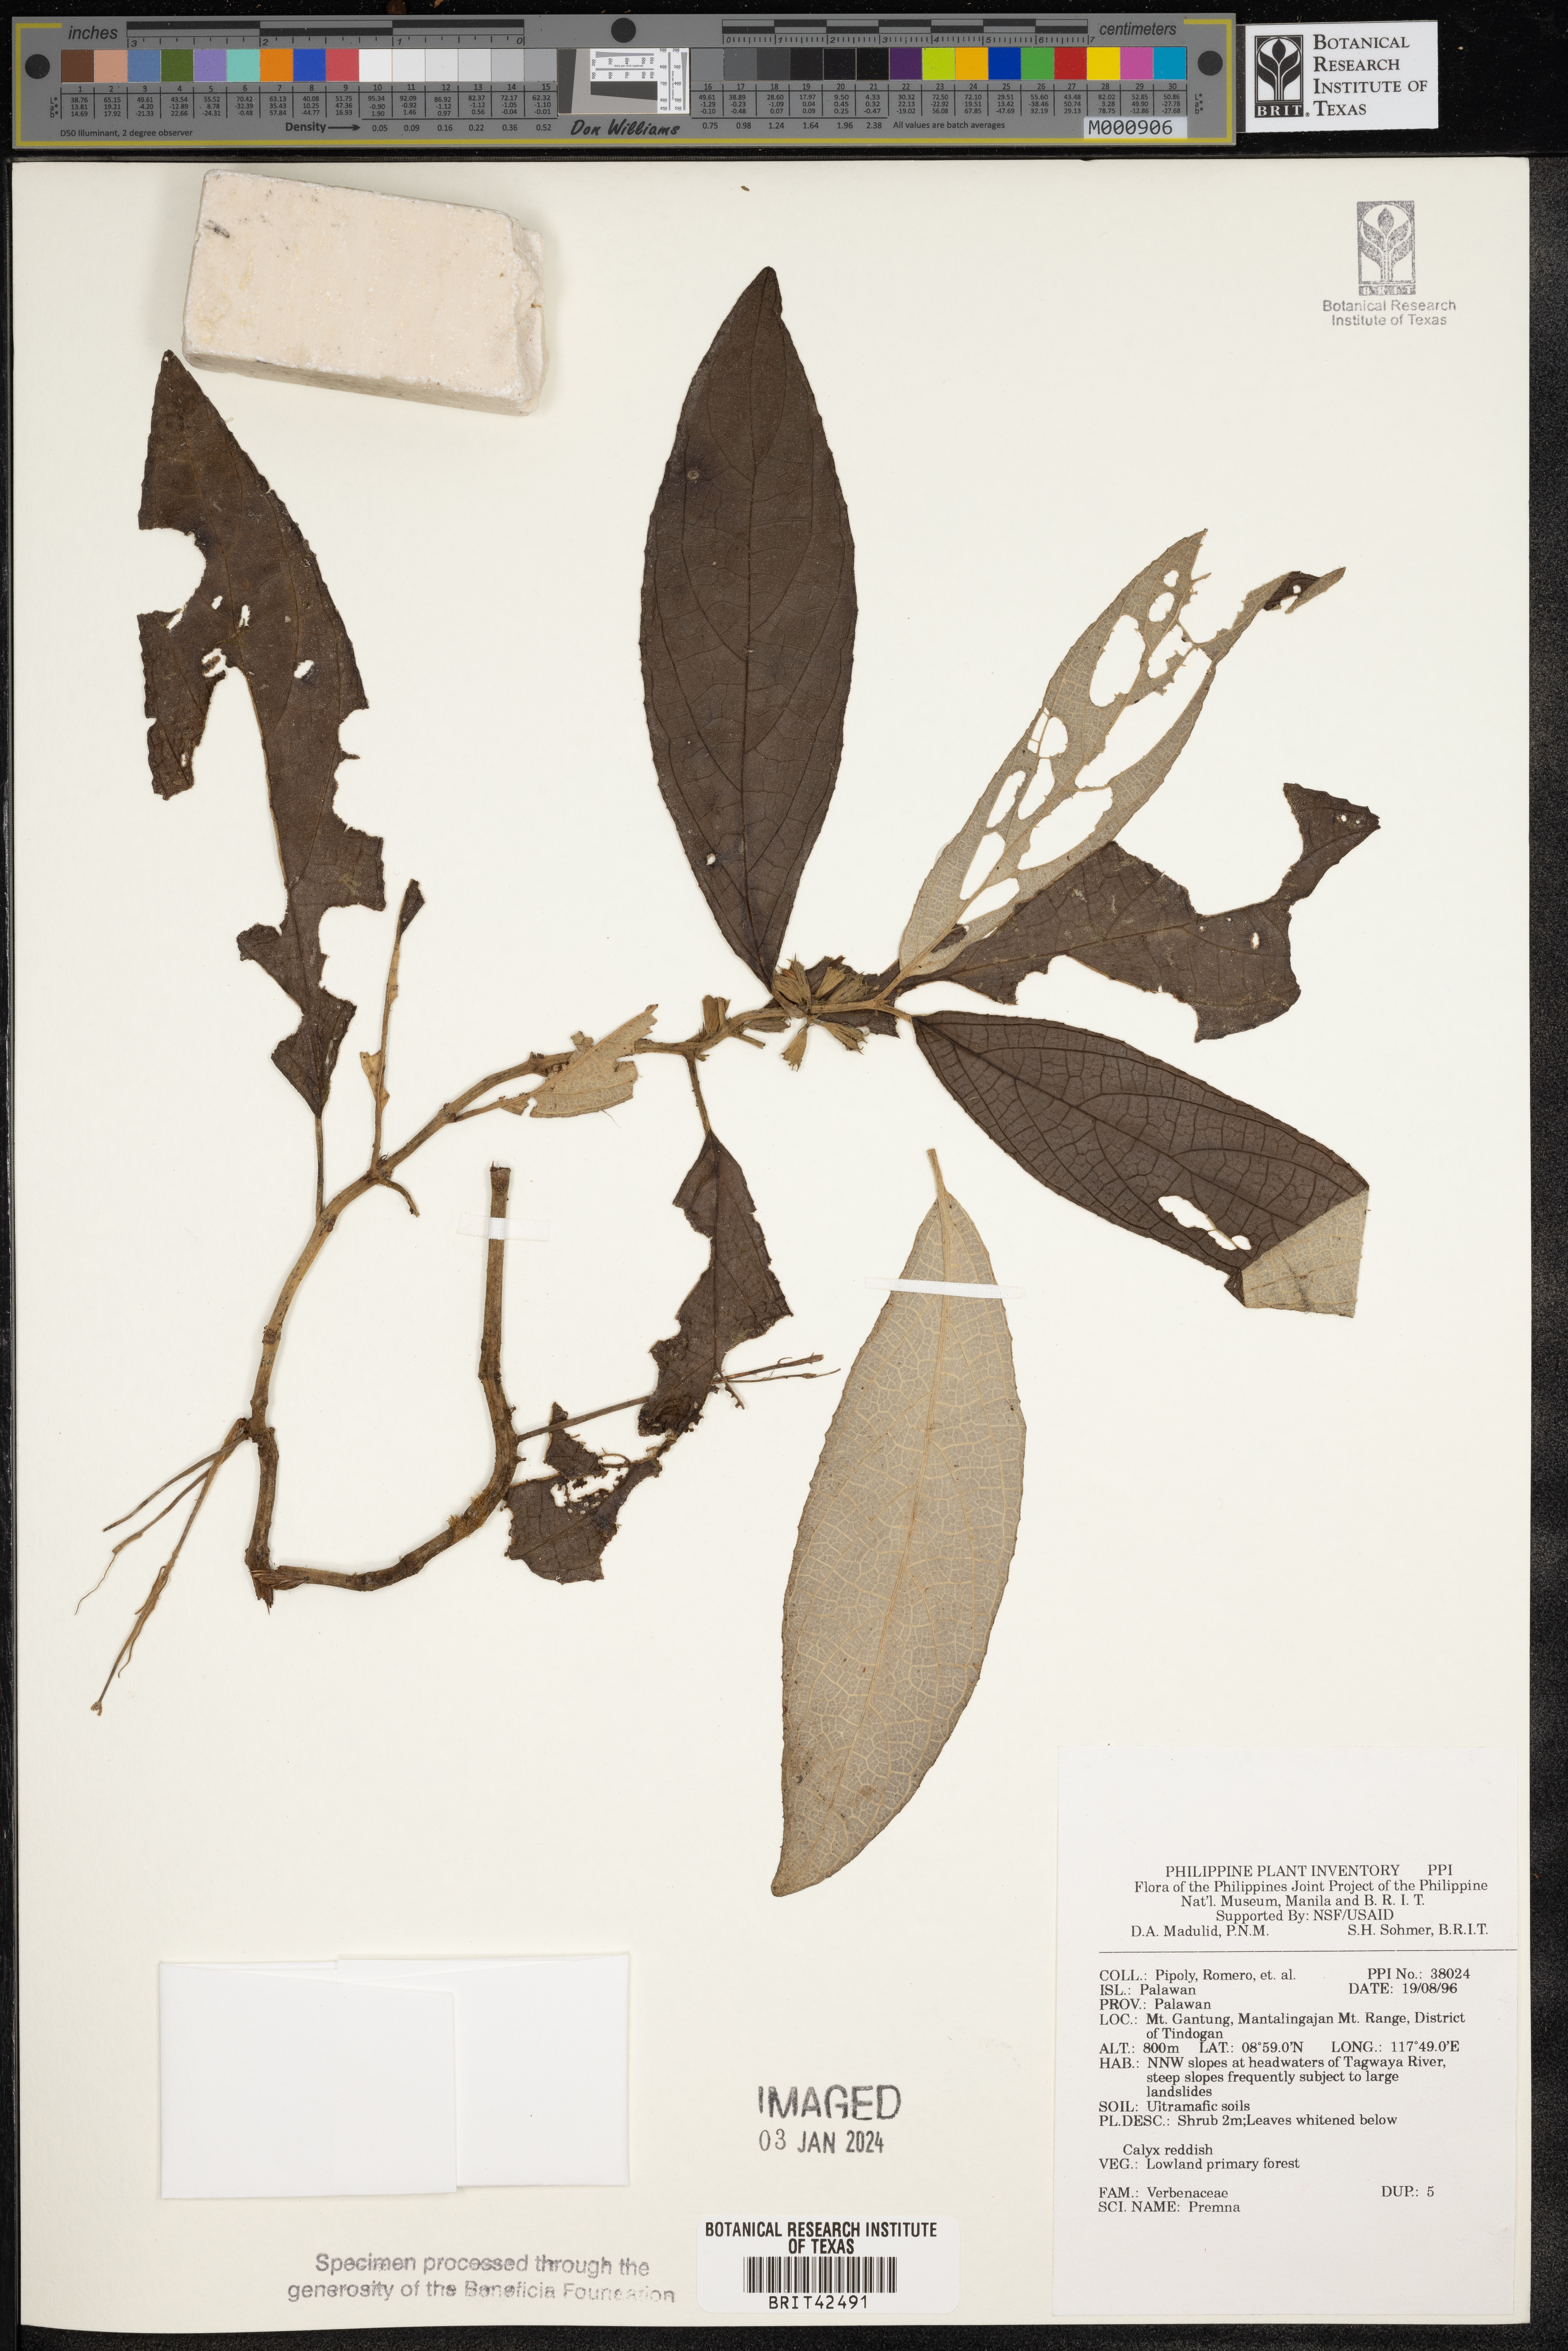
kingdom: Plantae
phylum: Tracheophyta
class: Magnoliopsida
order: Lamiales
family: Lamiaceae
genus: Premna
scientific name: Premna
